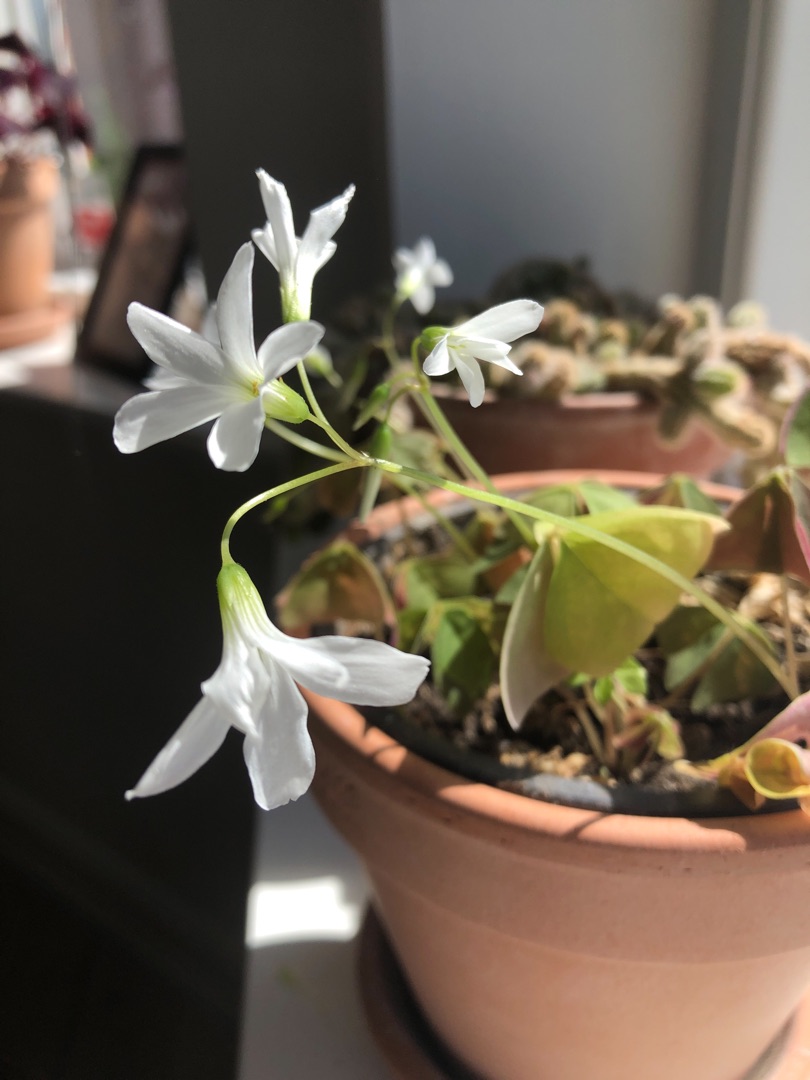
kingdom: Plantae
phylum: Tracheophyta
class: Magnoliopsida
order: Oxalidales
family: Oxalidaceae
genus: Oxalis
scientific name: Oxalis
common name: Surkløverslægten
